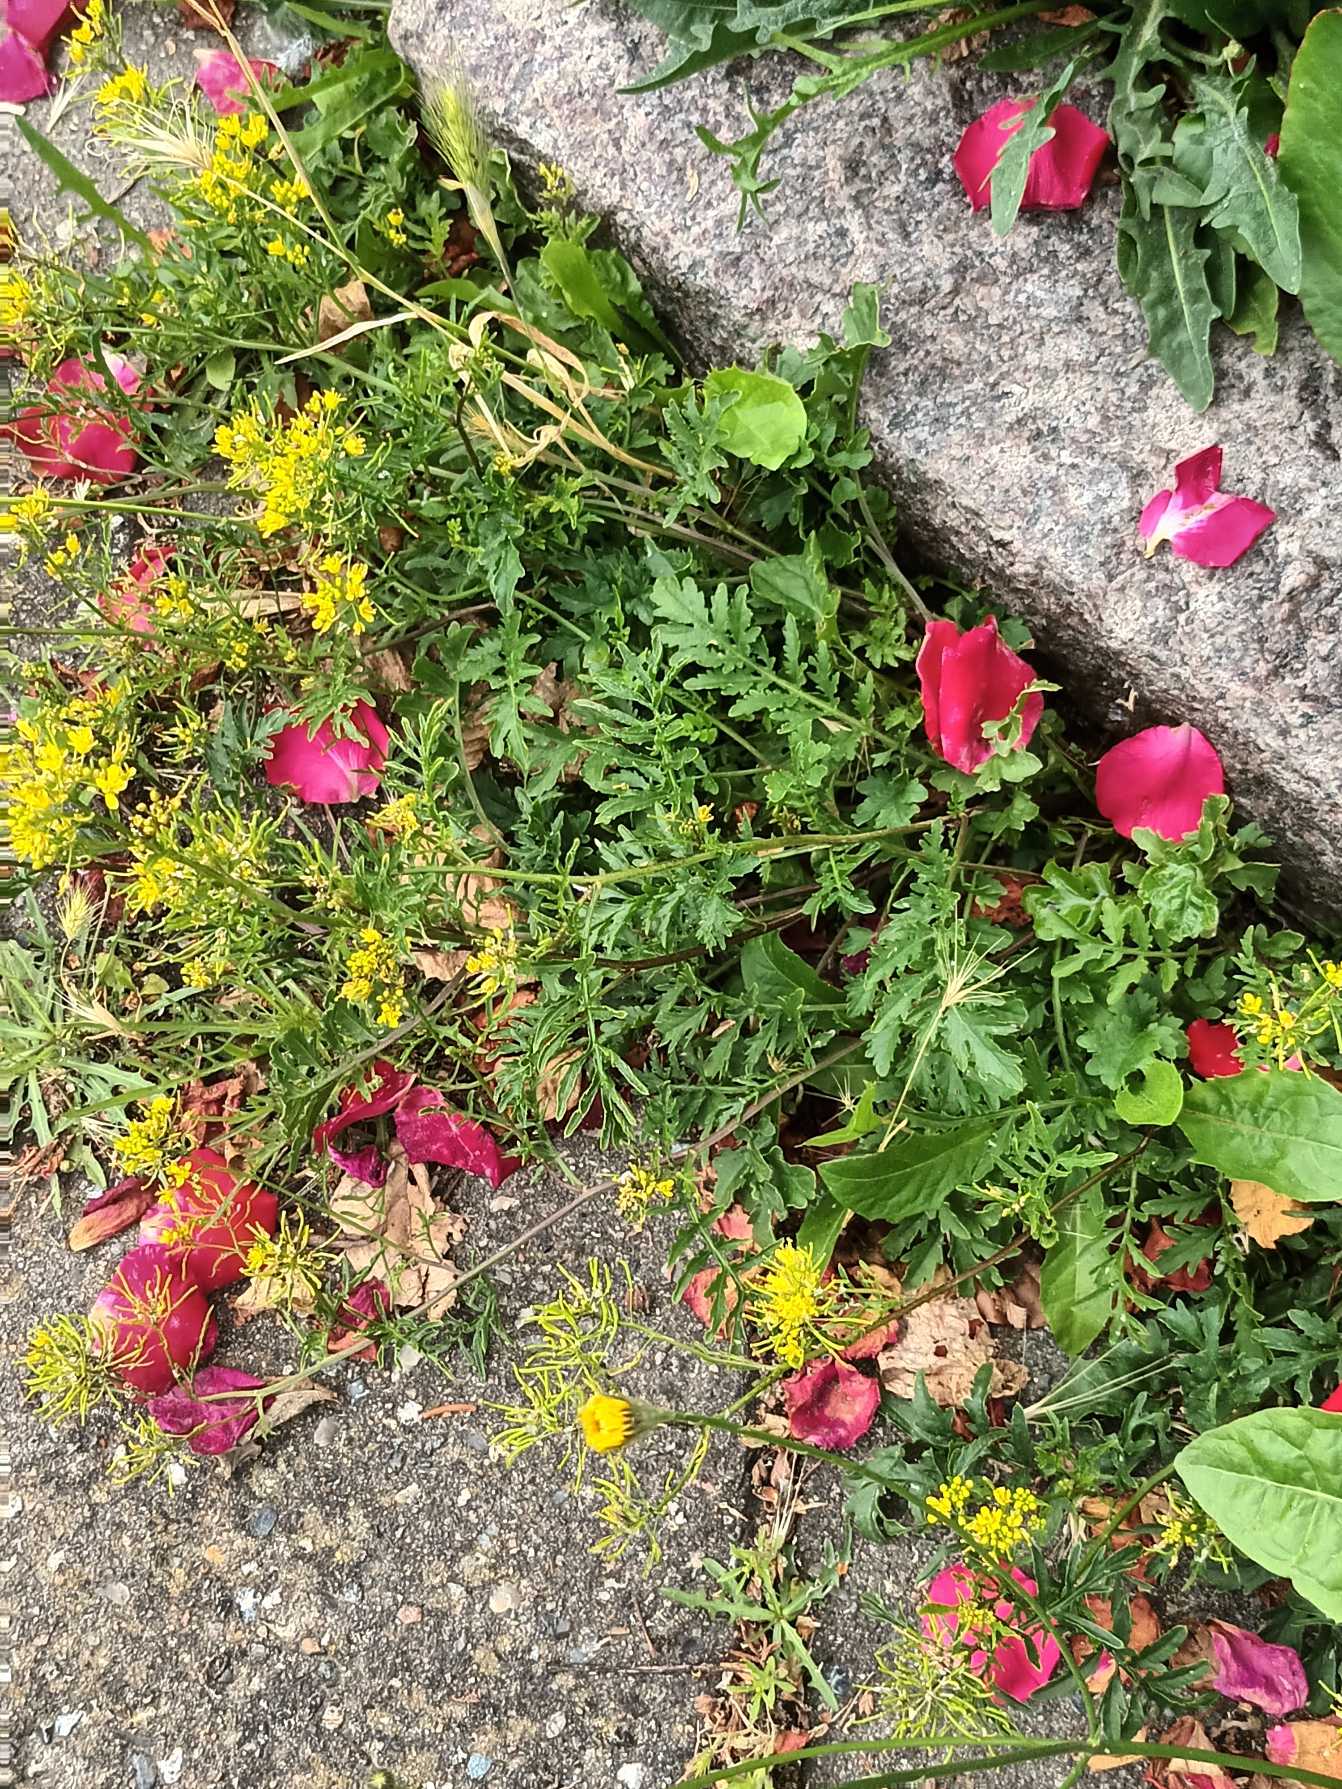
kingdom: Plantae
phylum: Tracheophyta
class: Magnoliopsida
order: Brassicales
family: Brassicaceae
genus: Rorippa
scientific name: Rorippa sylvestris
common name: Vej-guldkarse
